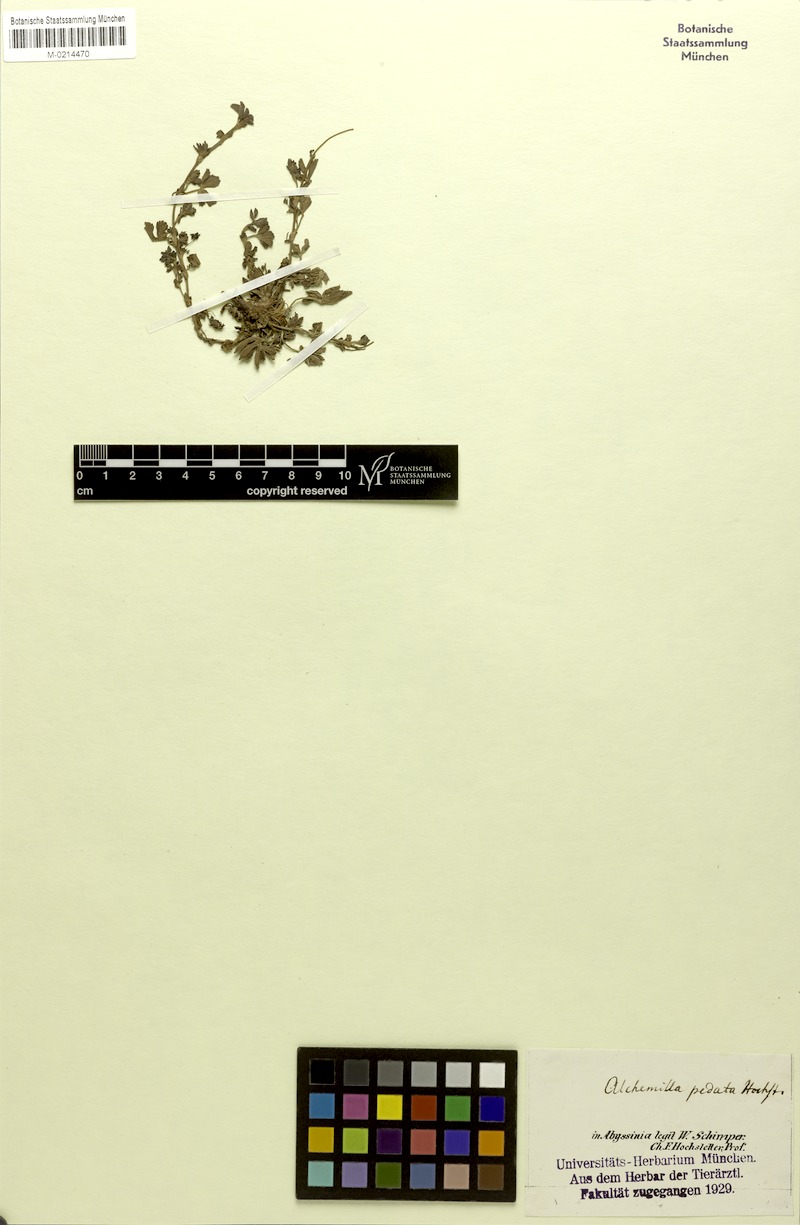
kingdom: Plantae
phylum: Tracheophyta
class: Magnoliopsida
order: Rosales
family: Rosaceae
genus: Alchemilla
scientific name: Alchemilla pedata
